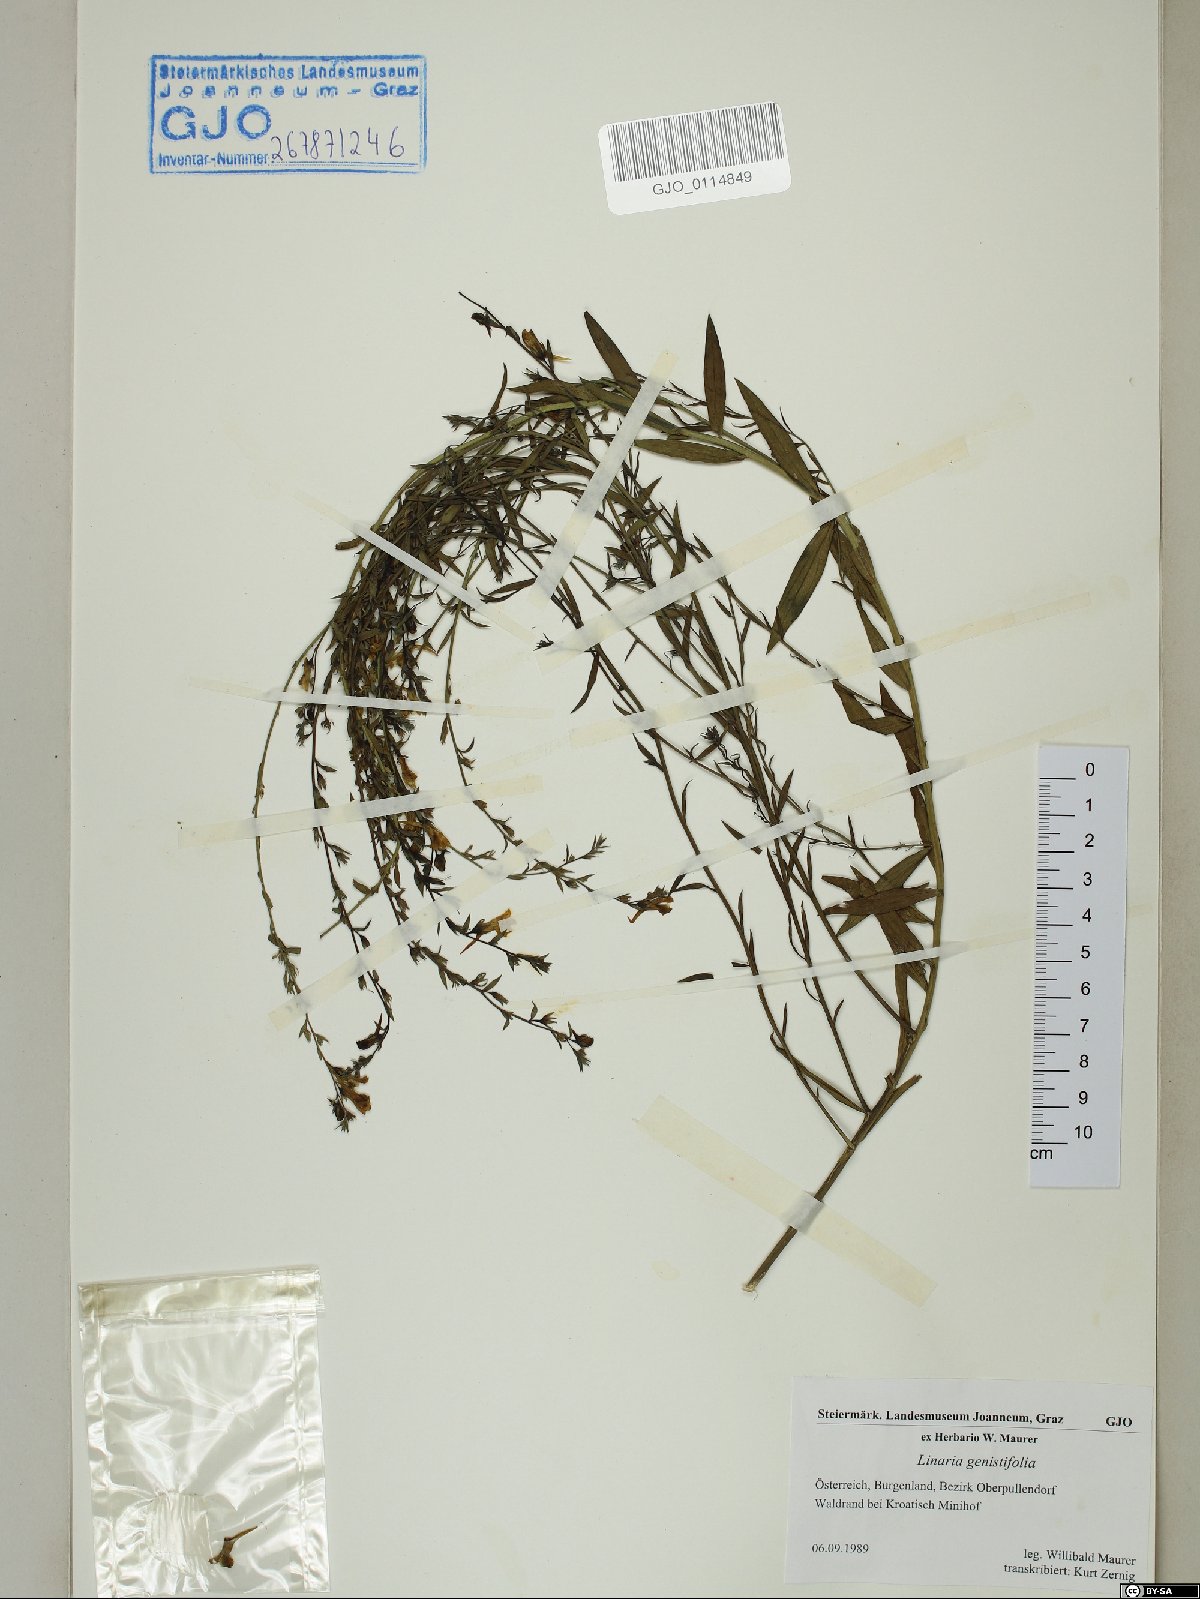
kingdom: Plantae
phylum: Tracheophyta
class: Magnoliopsida
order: Lamiales
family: Plantaginaceae
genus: Linaria
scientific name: Linaria genistifolia
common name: Broomleaf toadflax
